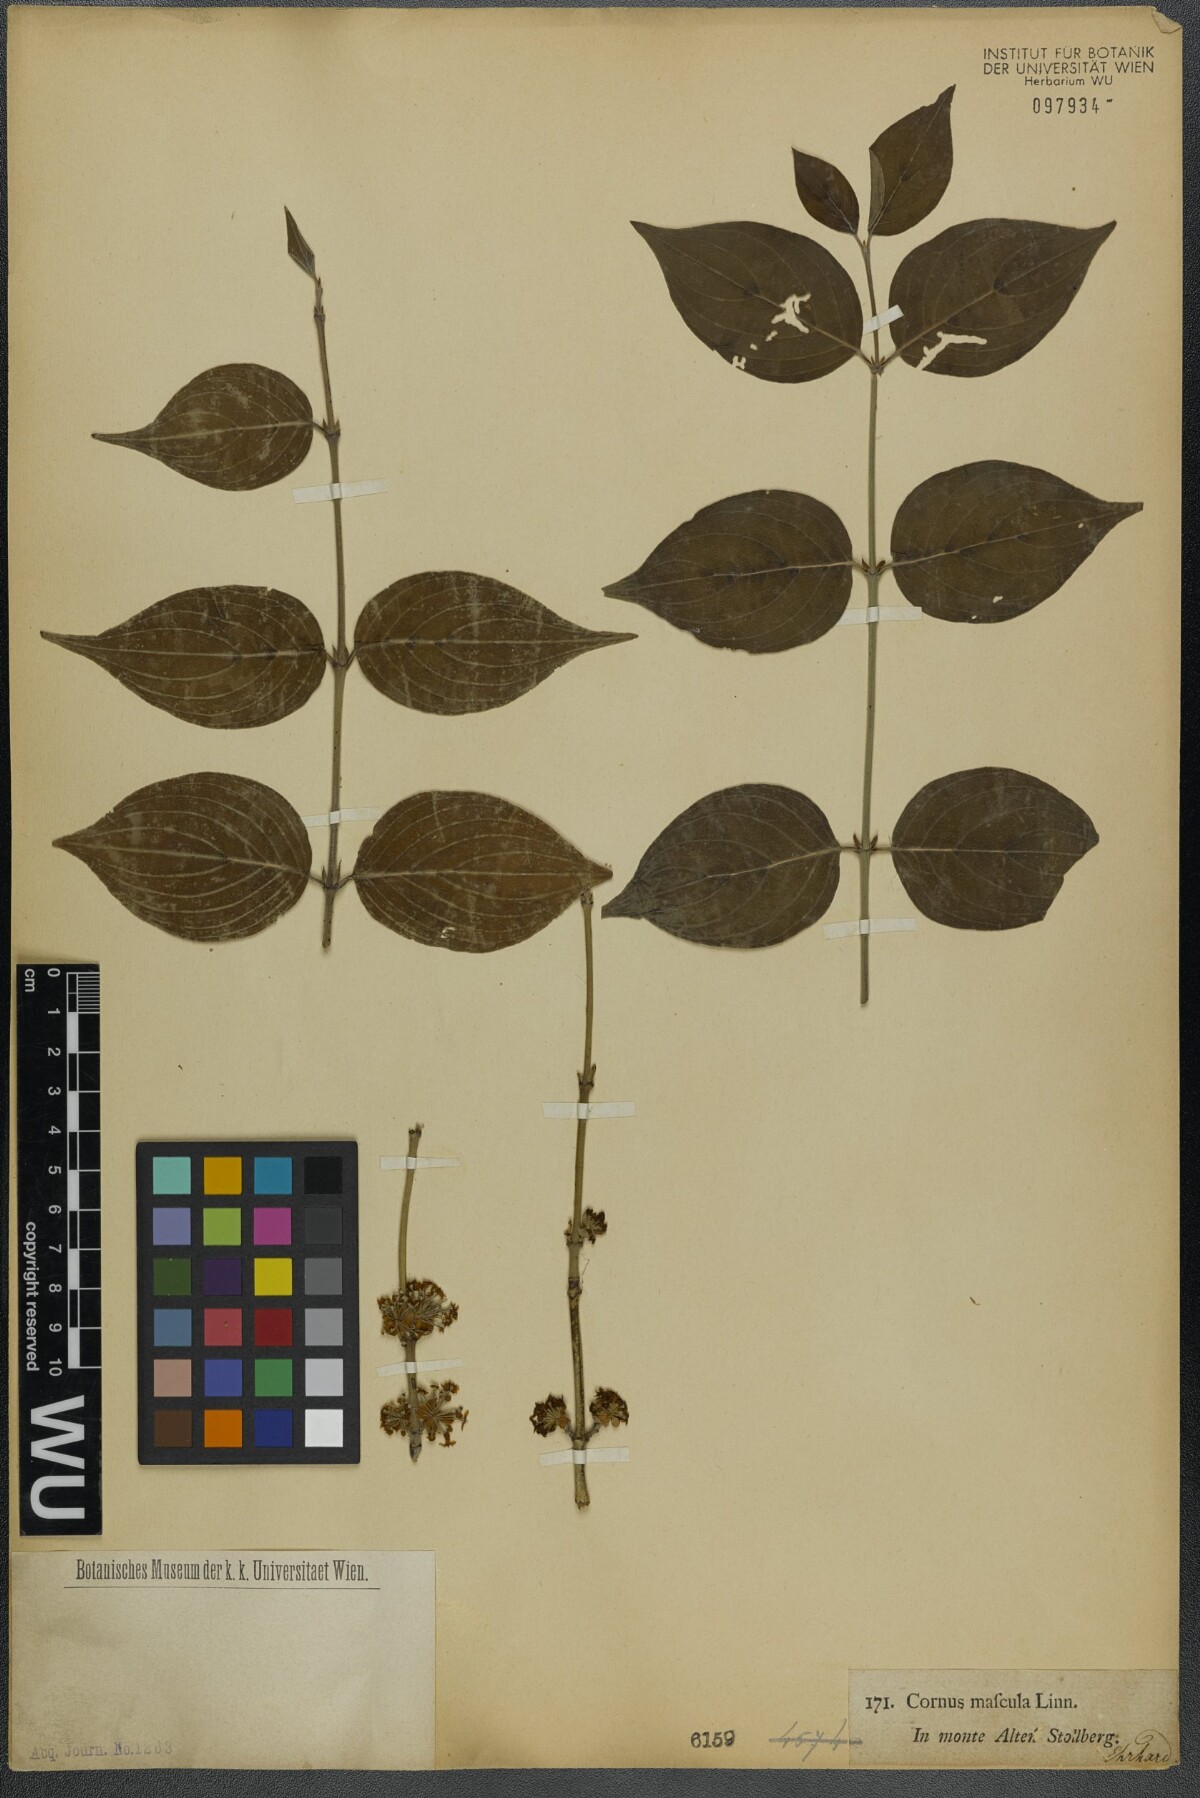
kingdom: Plantae
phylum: Tracheophyta
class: Magnoliopsida
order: Cornales
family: Cornaceae
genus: Cornus
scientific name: Cornus mas
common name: Cornelian-cherry
